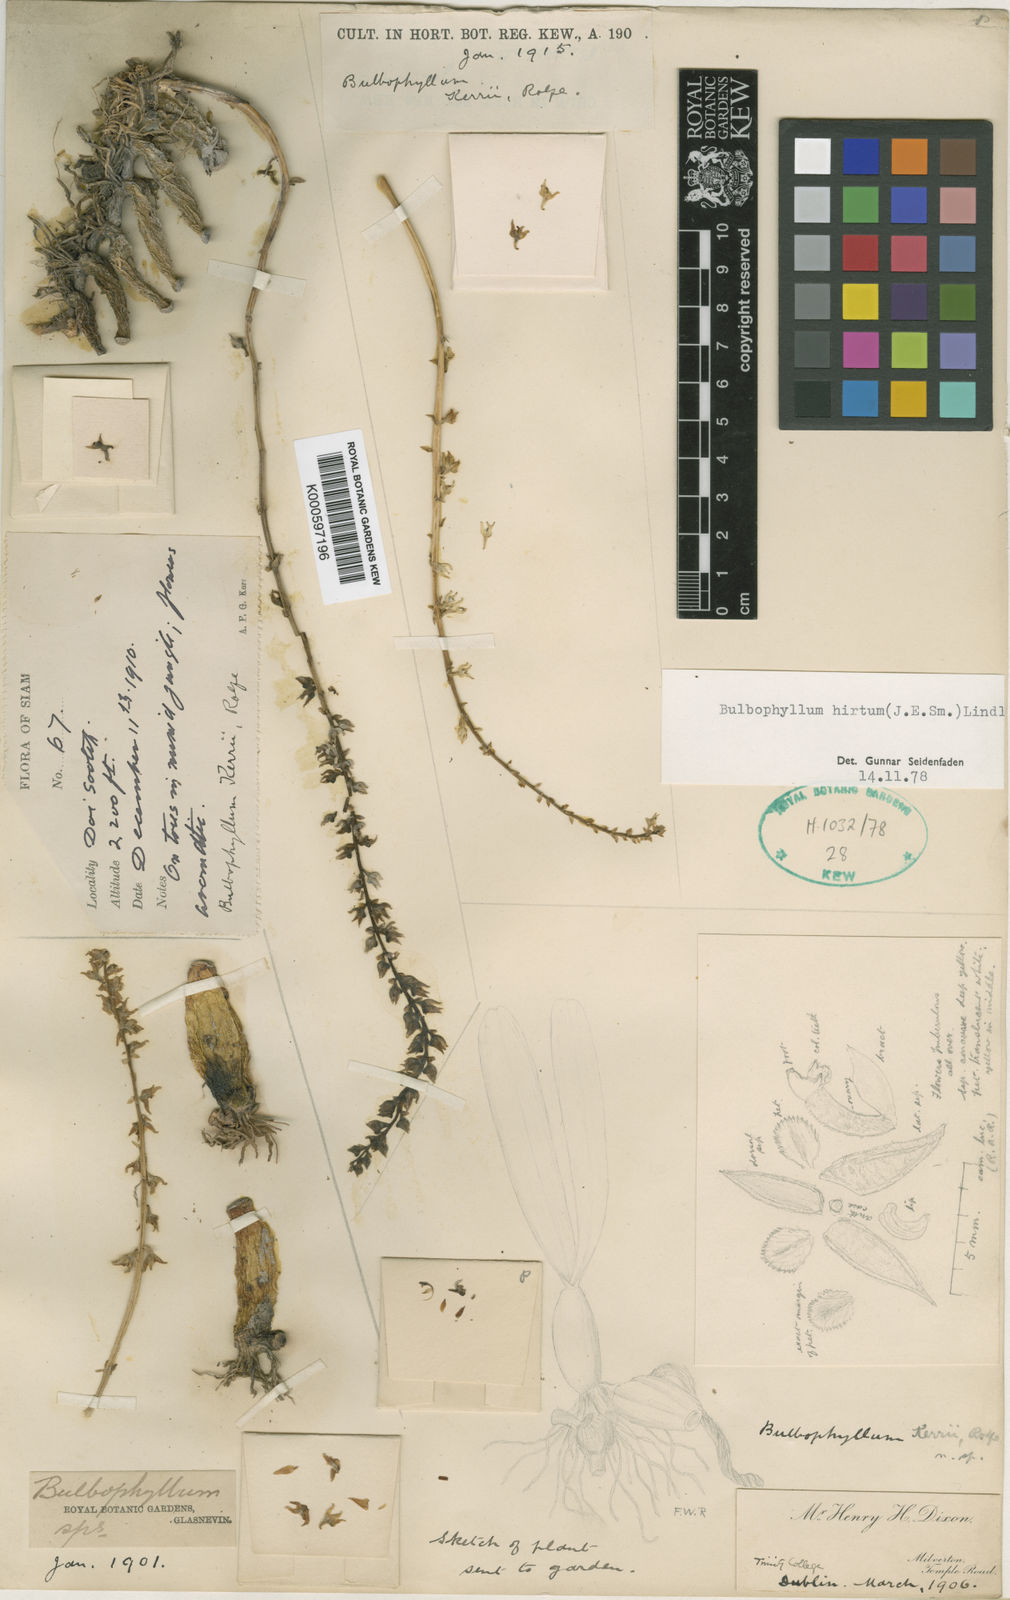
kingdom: Plantae
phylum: Tracheophyta
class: Liliopsida
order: Asparagales
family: Orchidaceae
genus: Bulbophyllum
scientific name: Bulbophyllum
